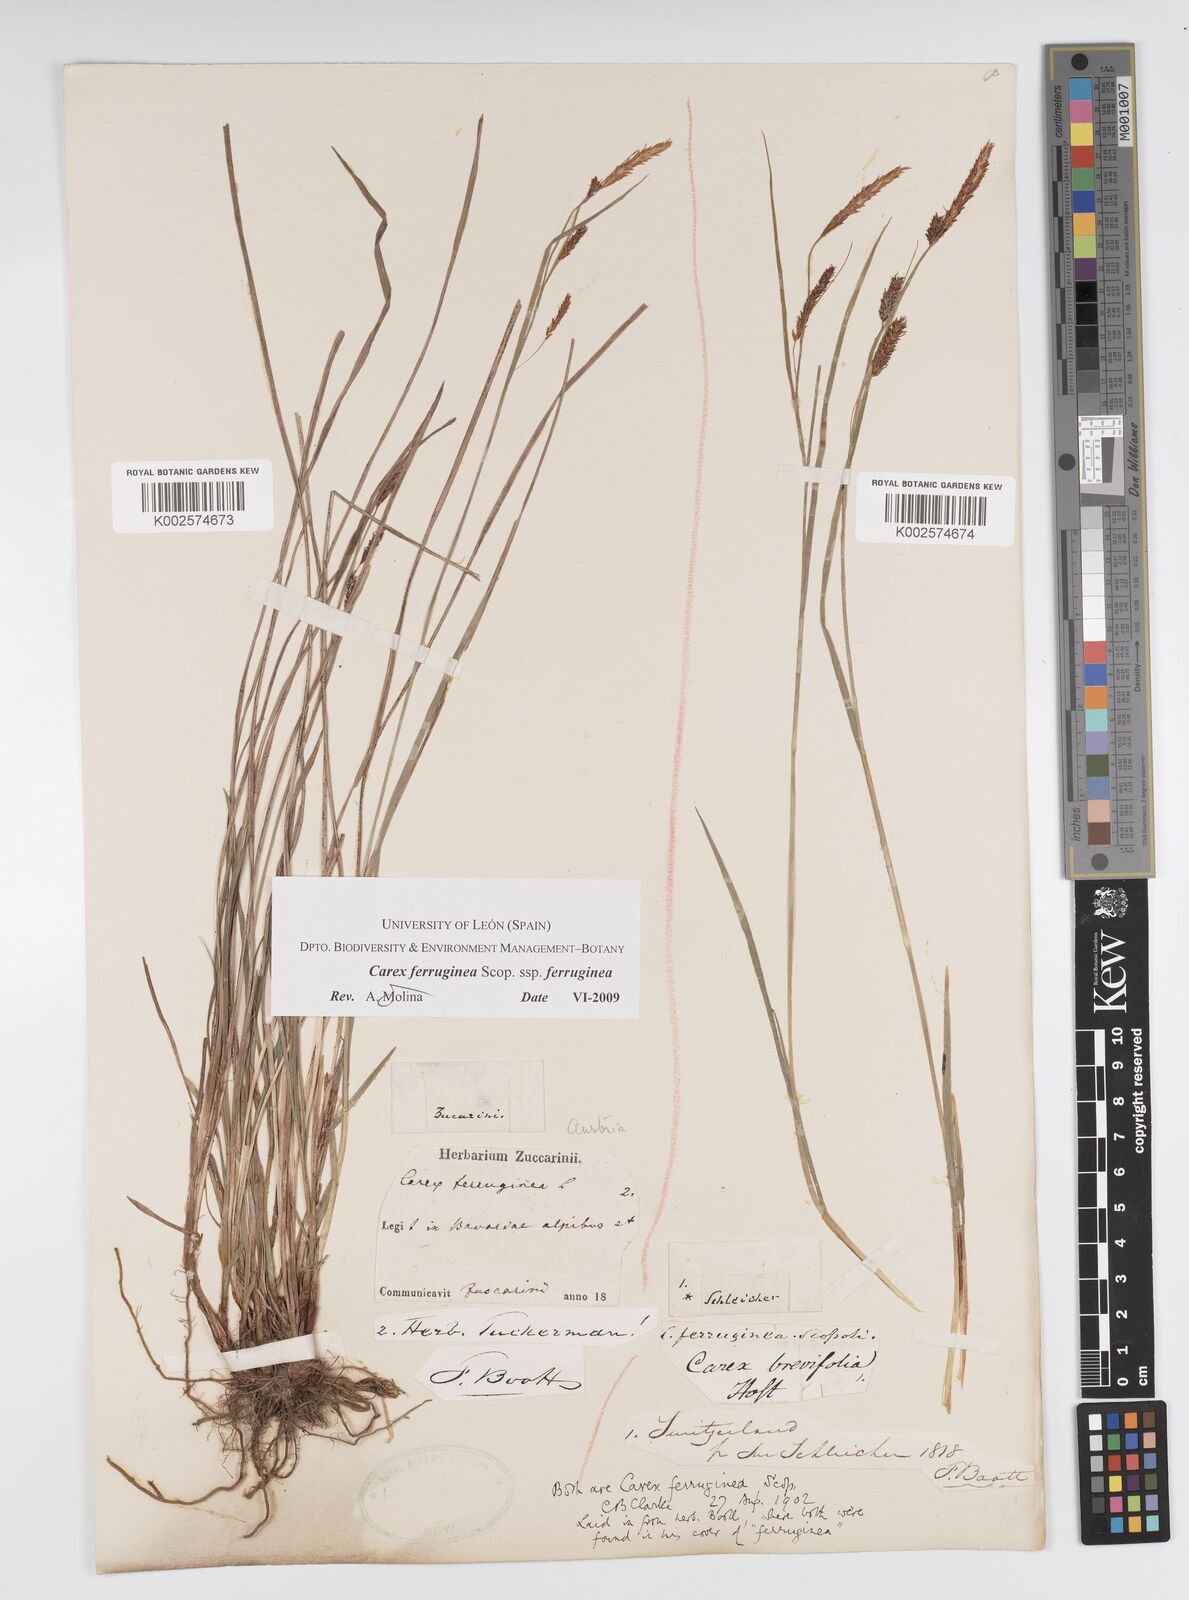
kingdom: Plantae
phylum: Tracheophyta
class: Liliopsida
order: Poales
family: Cyperaceae
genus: Carex
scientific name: Carex ferruginea
